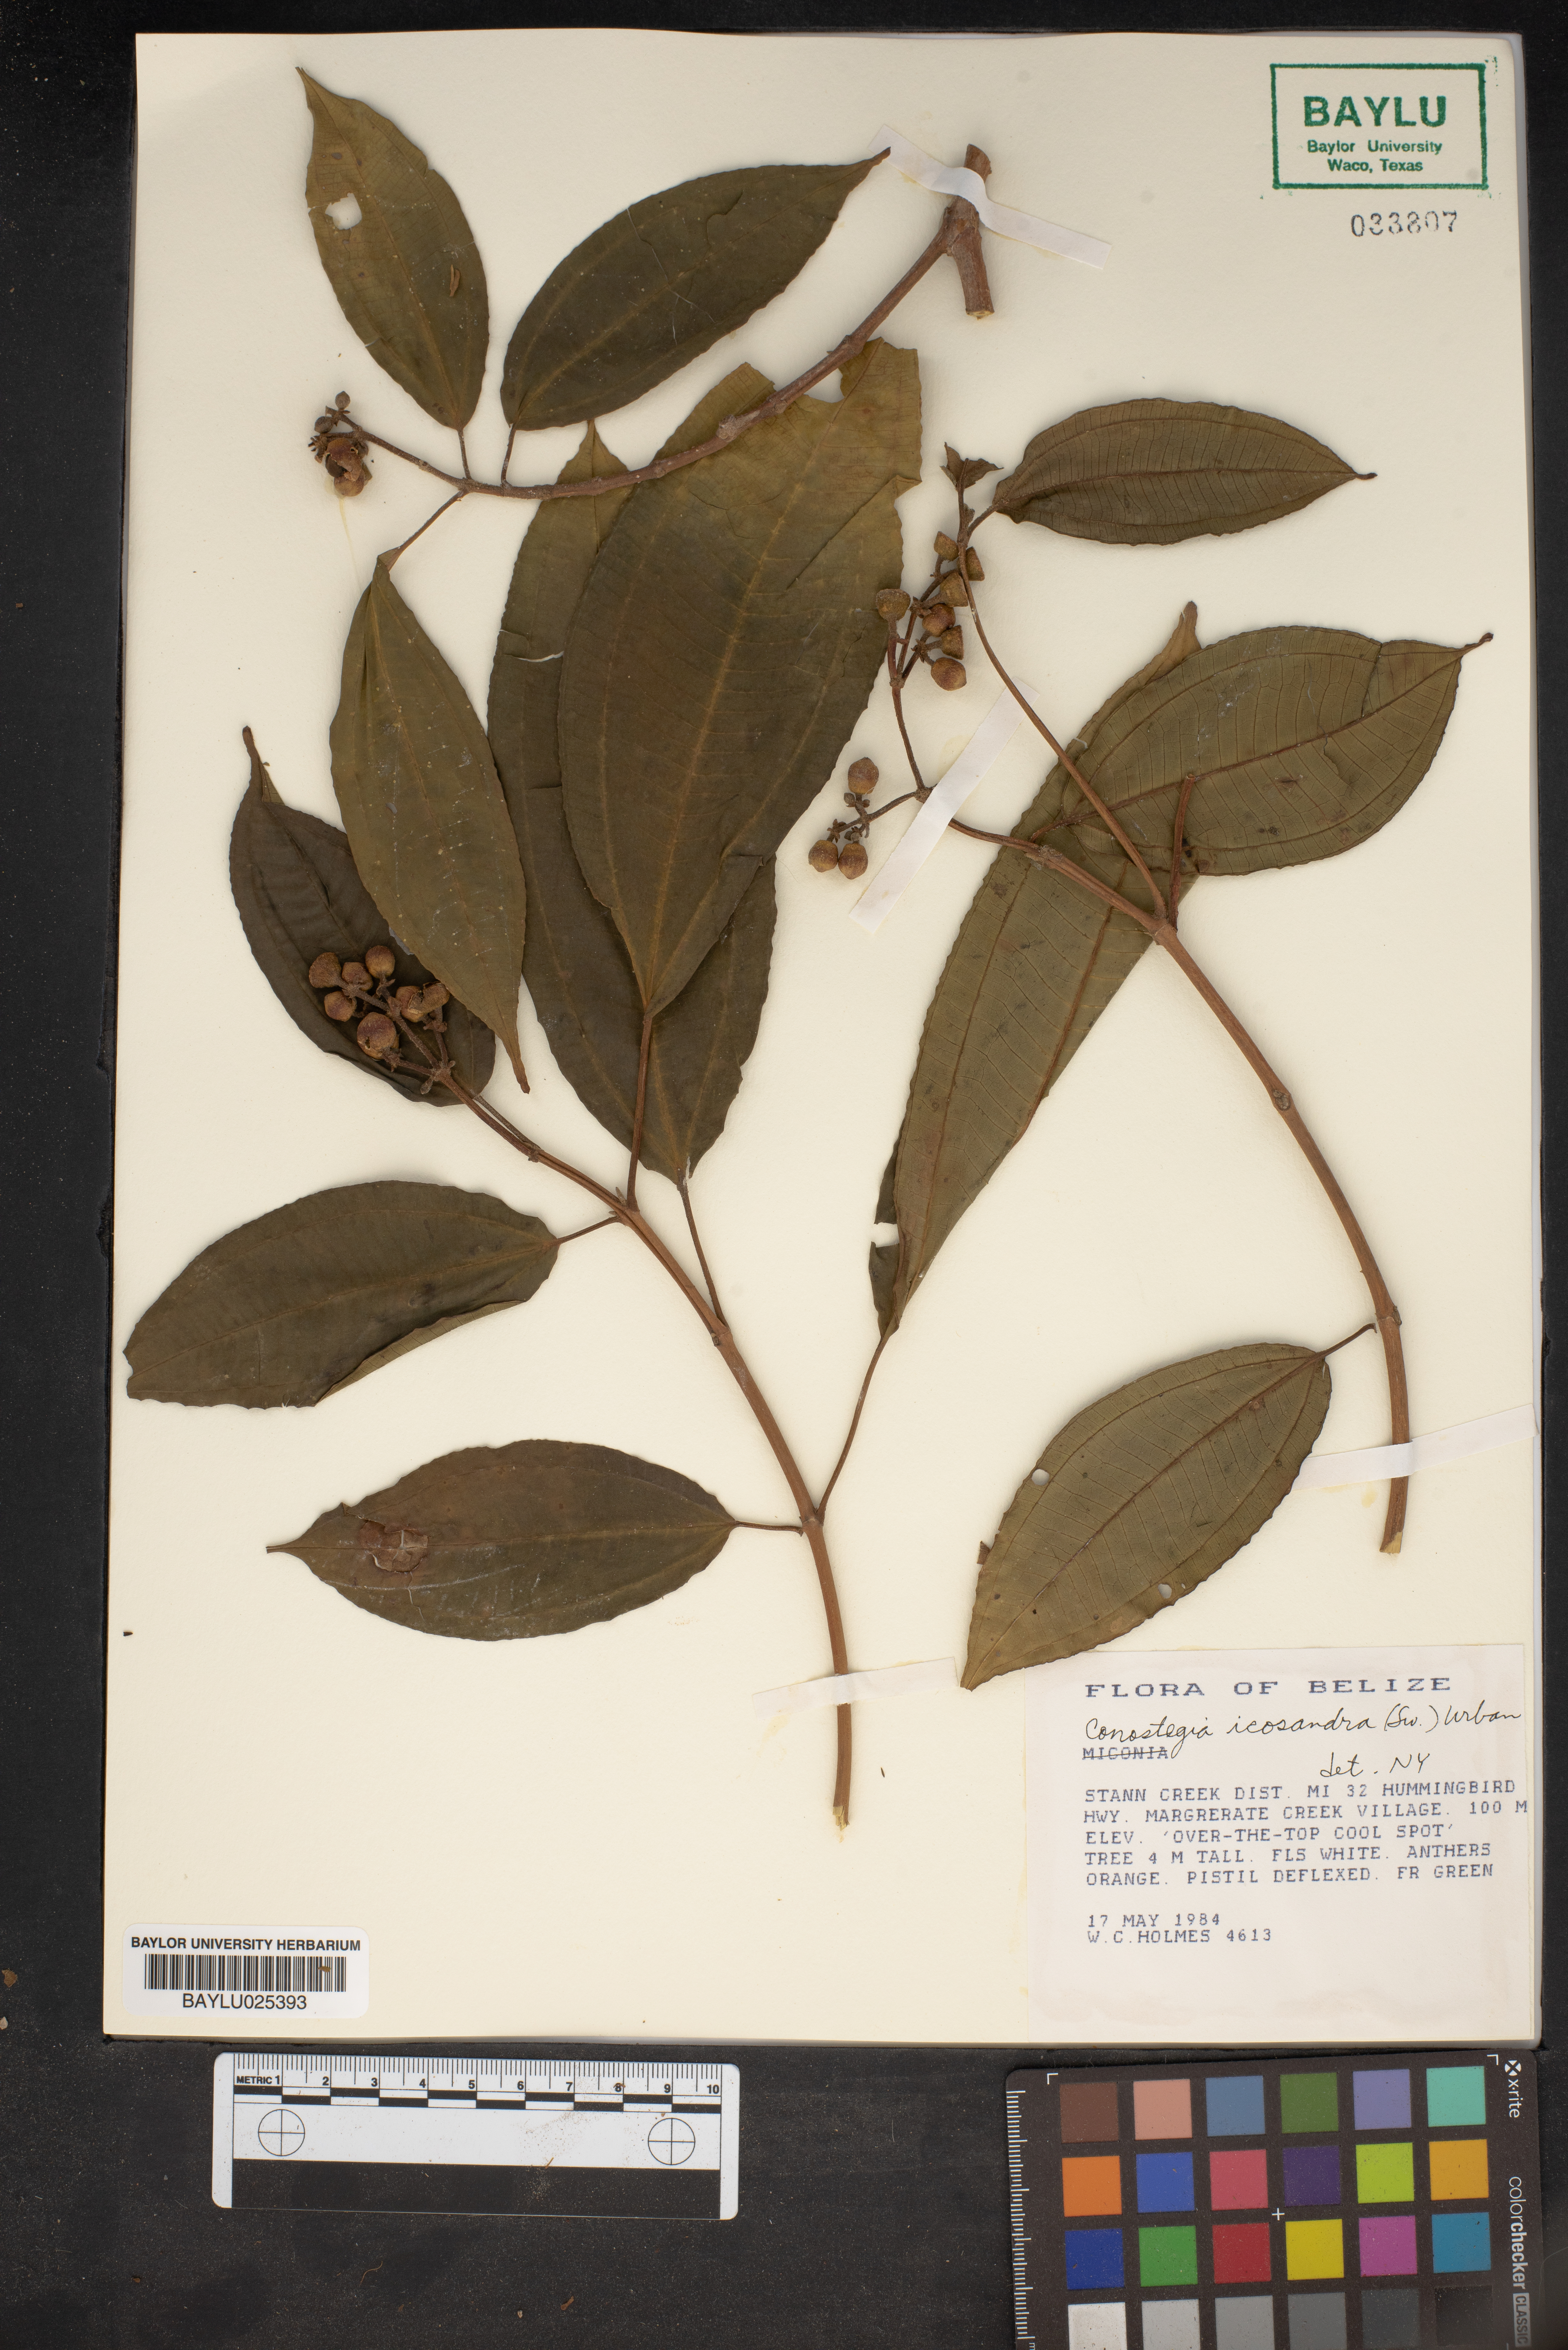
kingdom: Plantae
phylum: Tracheophyta
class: Magnoliopsida
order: Myrtales
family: Melastomataceae
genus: Miconia
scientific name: Miconia subhirsuta
